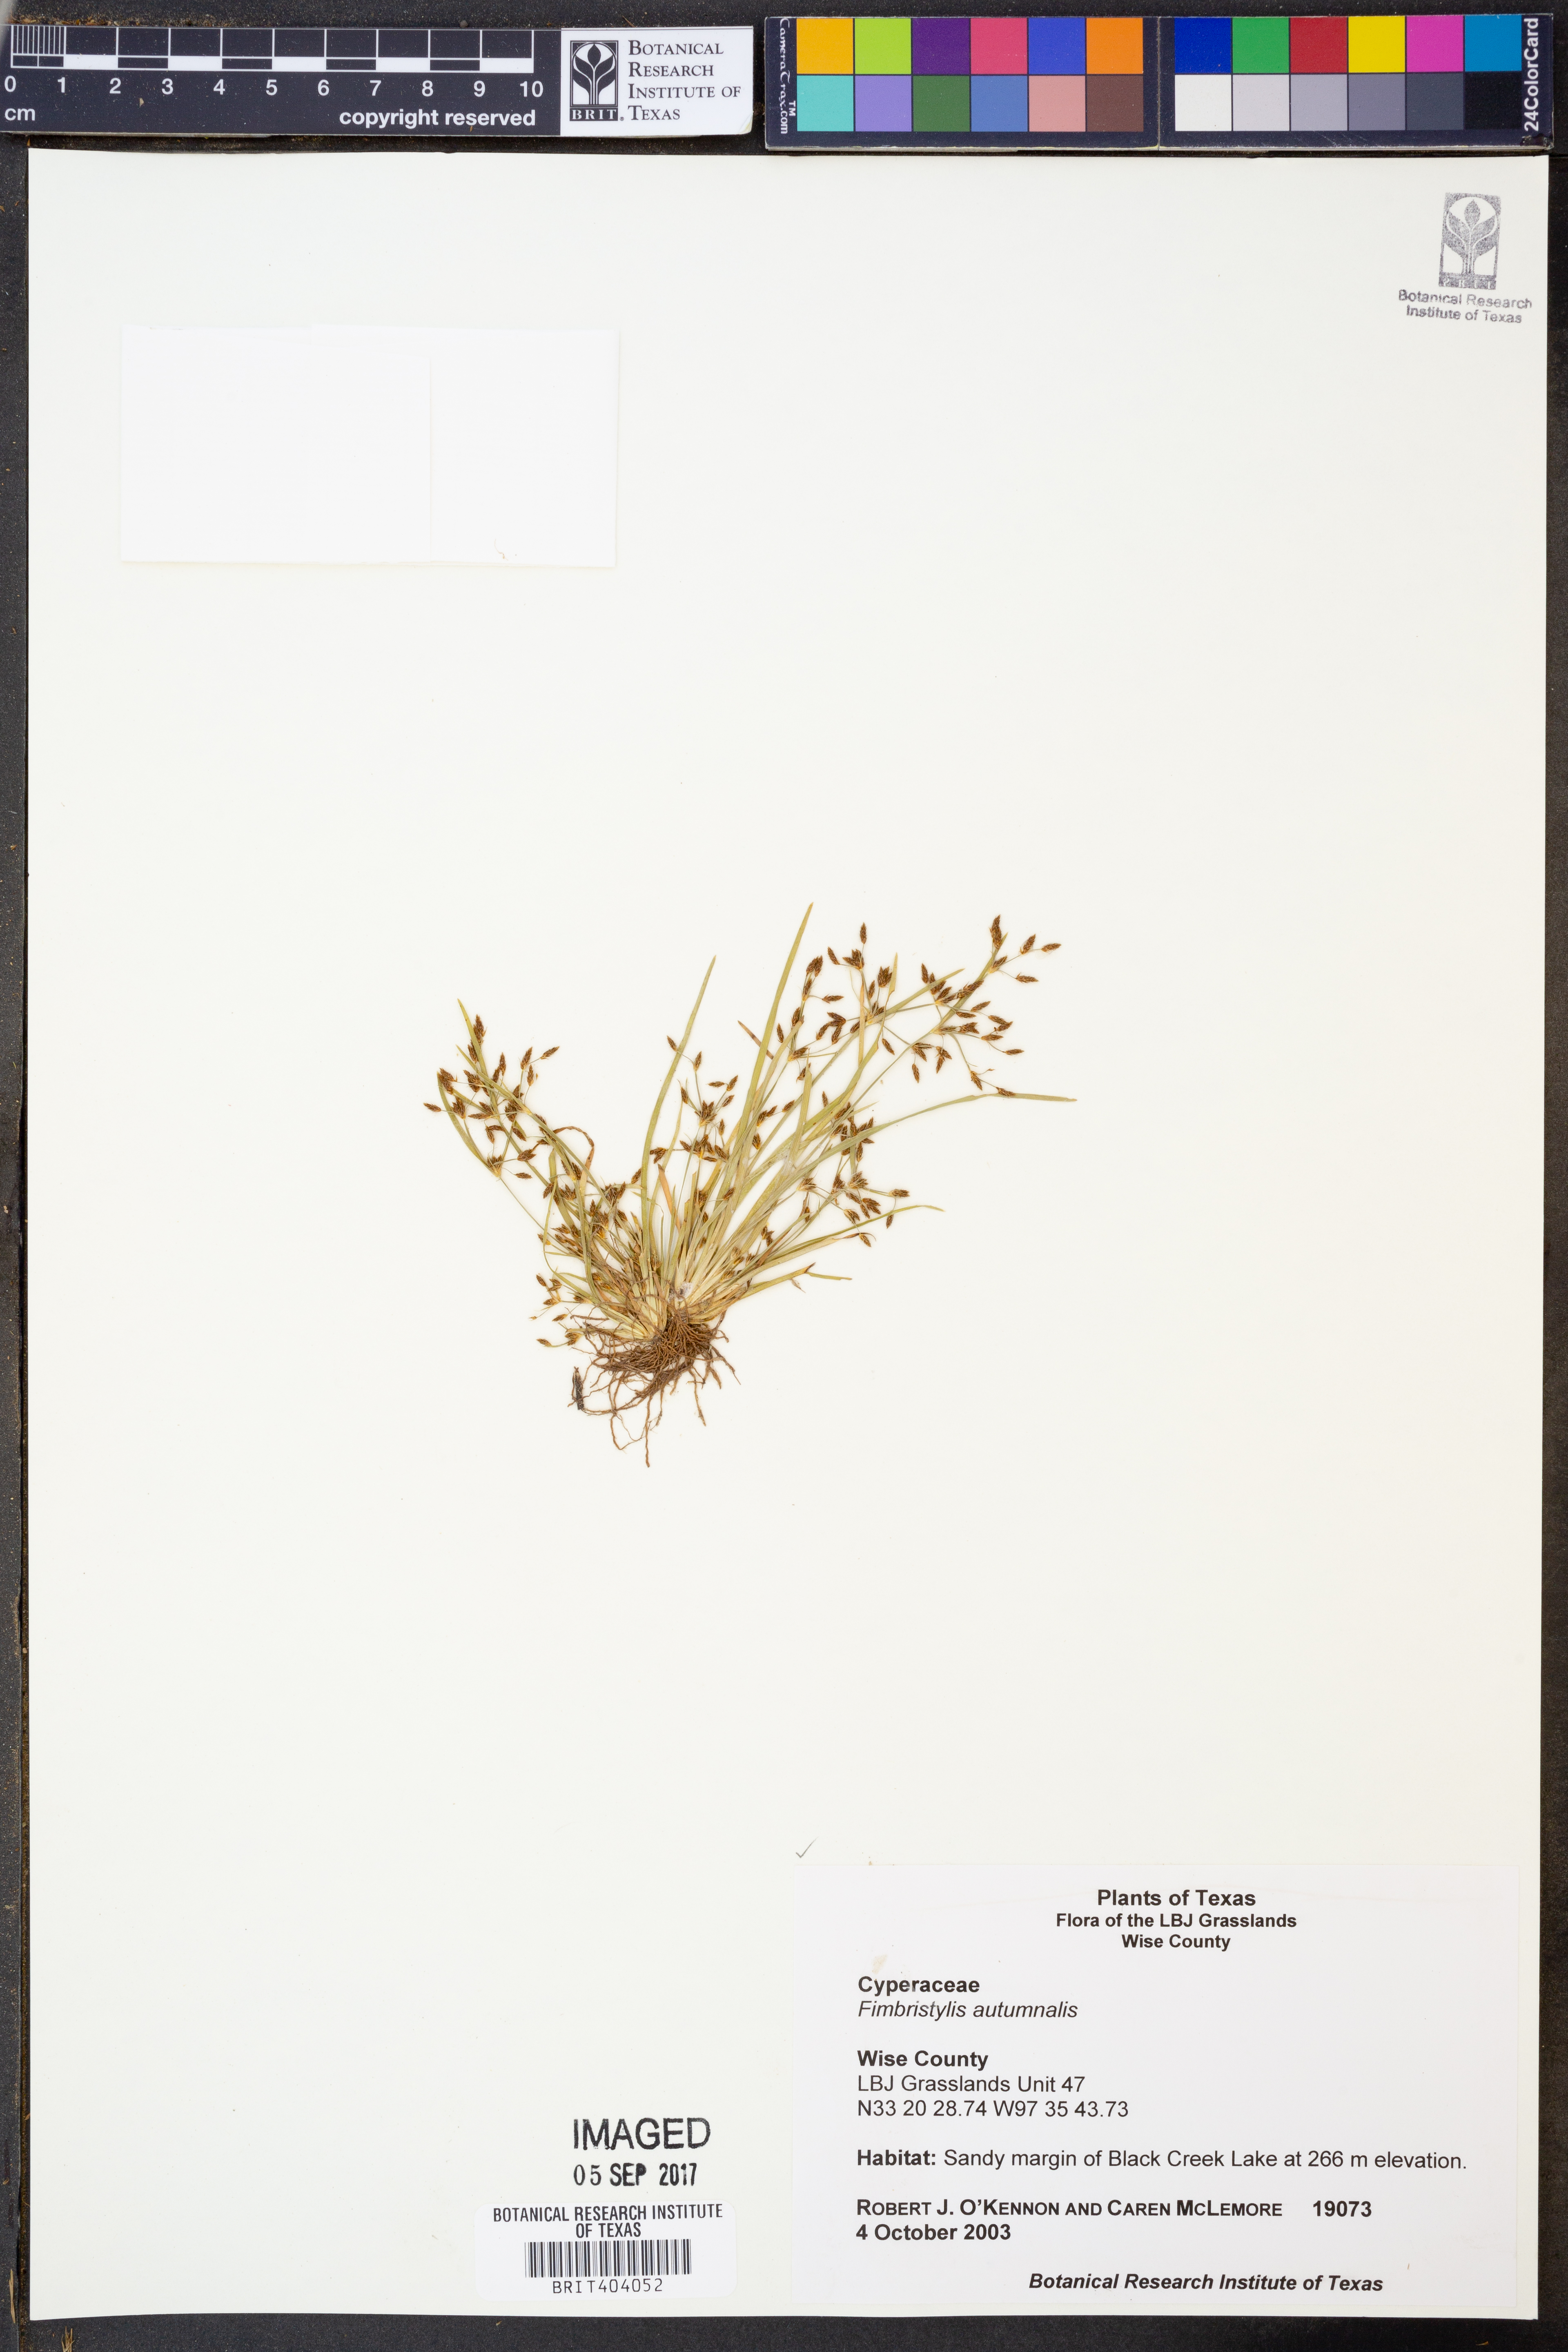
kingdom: Plantae
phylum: Tracheophyta
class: Liliopsida
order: Poales
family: Cyperaceae
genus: Fimbristylis
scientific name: Fimbristylis autumnalis
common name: Slender fimbristylis
